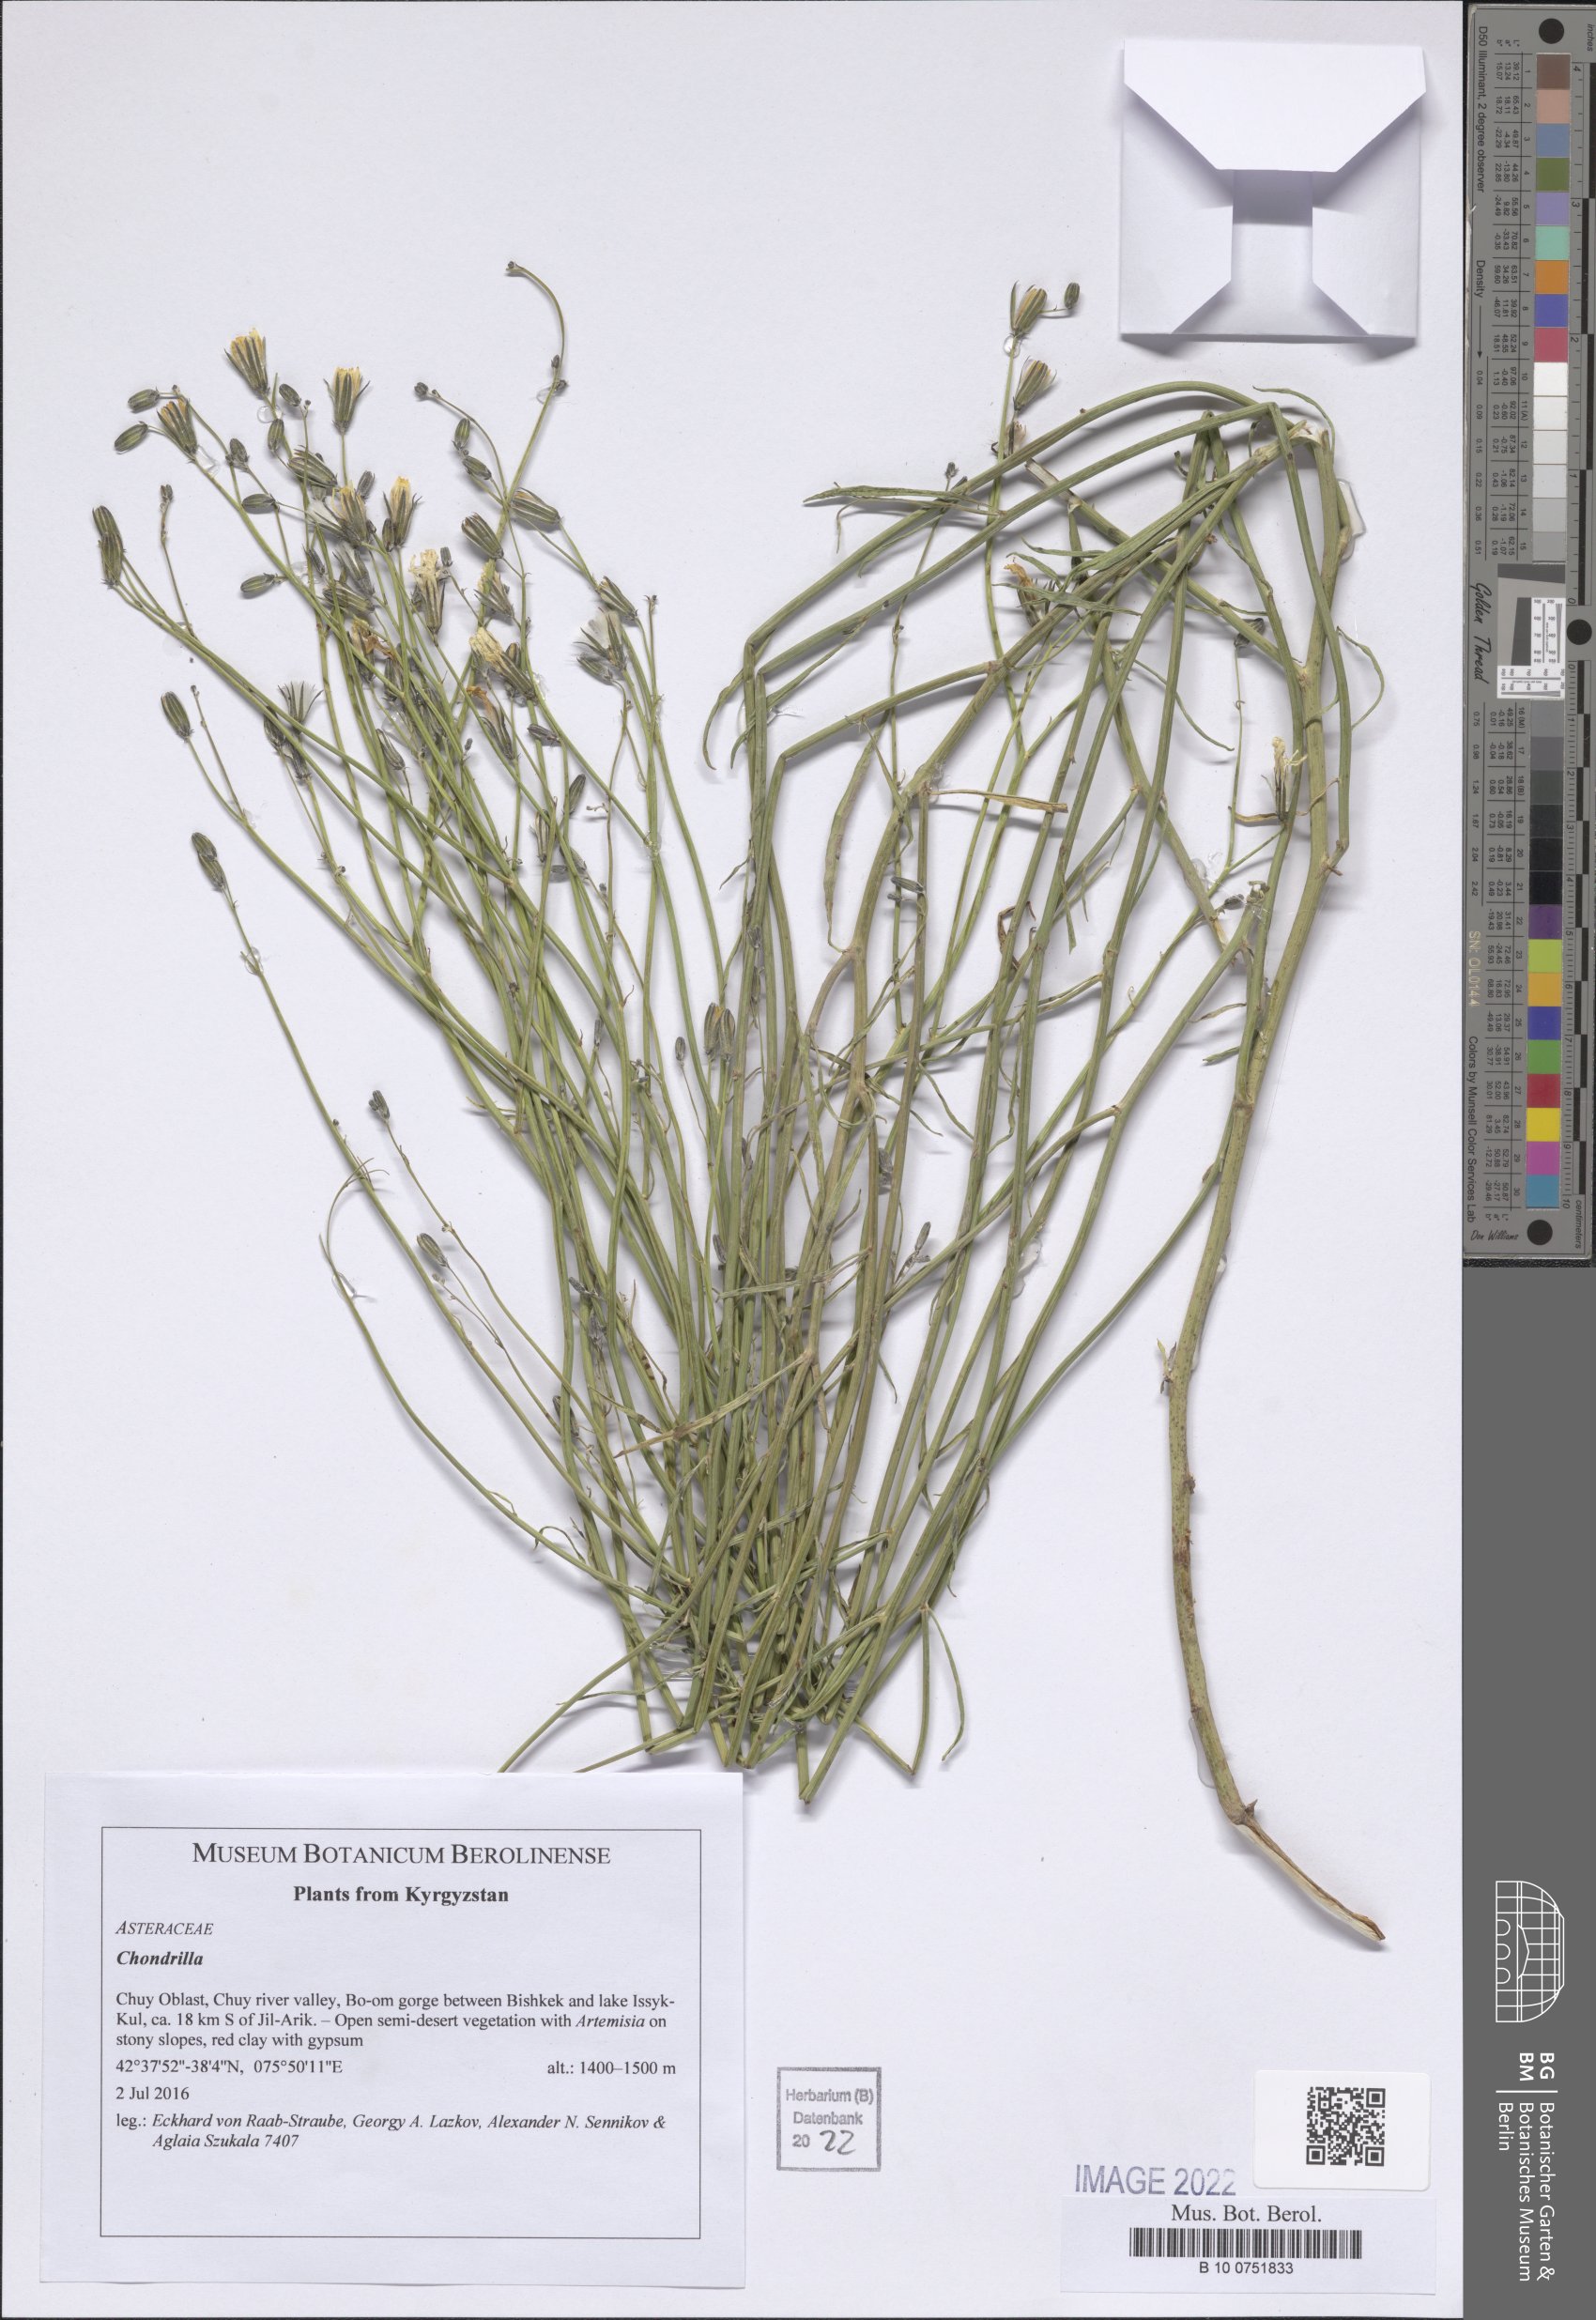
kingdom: Plantae
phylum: Tracheophyta
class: Magnoliopsida
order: Asterales
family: Asteraceae
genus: Chondrilla
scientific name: Chondrilla
